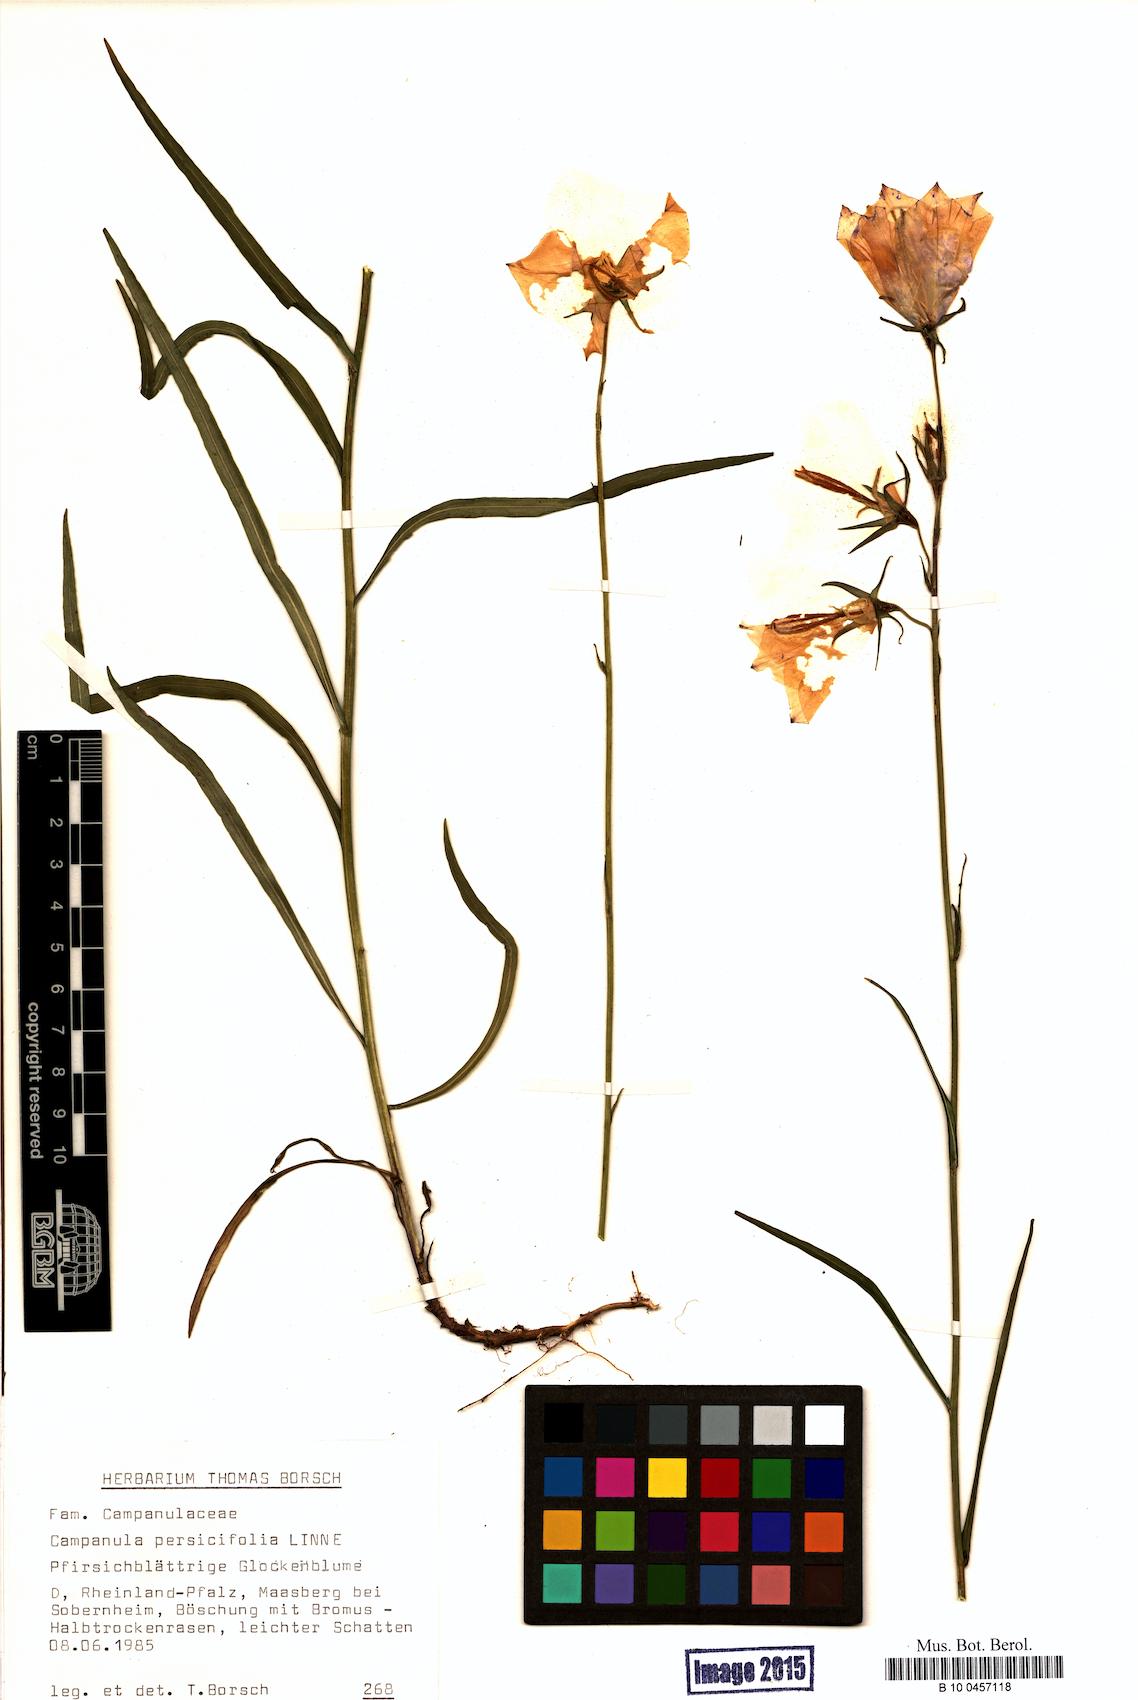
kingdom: Plantae
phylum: Tracheophyta
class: Magnoliopsida
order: Asterales
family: Campanulaceae
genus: Campanula
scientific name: Campanula persicifolia
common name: Peach-leaved bellflower
